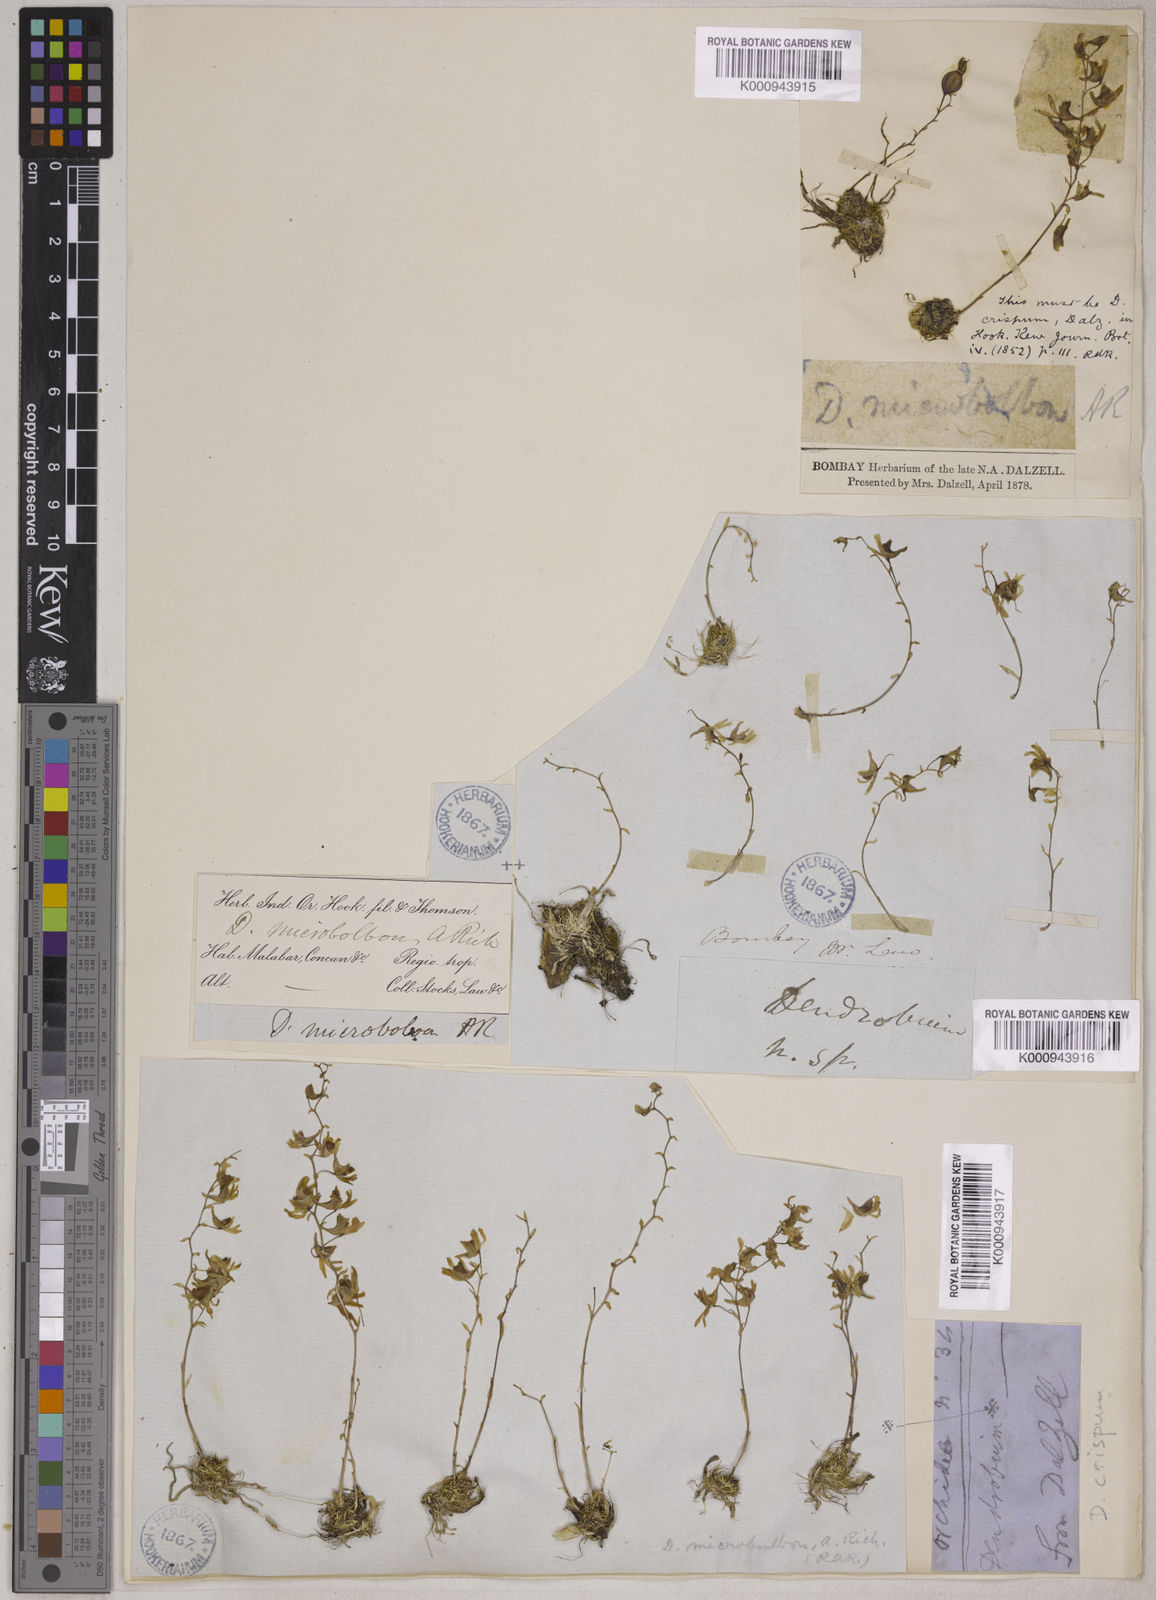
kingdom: Plantae
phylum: Tracheophyta
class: Liliopsida
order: Asparagales
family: Orchidaceae
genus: Dendrobium
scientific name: Dendrobium microbulbon
